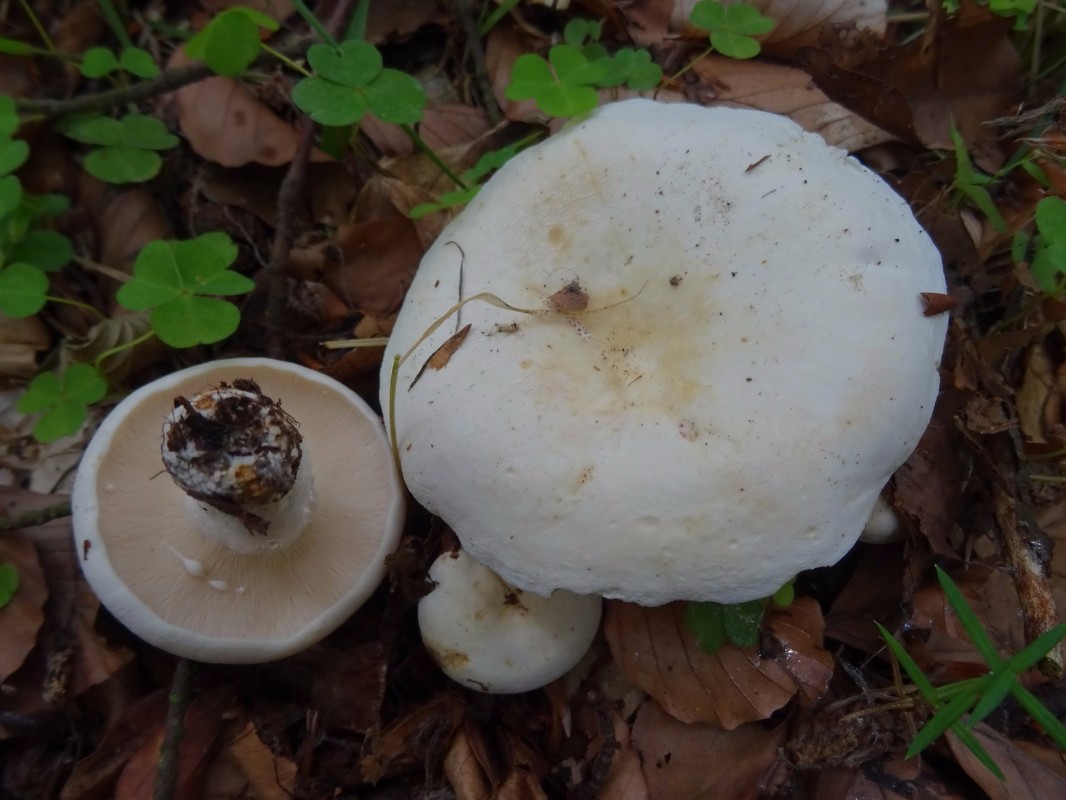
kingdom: Fungi
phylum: Basidiomycota
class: Agaricomycetes
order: Russulales
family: Russulaceae
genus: Lactifluus
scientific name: Lactifluus piperatus
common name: peber-mælkehat
